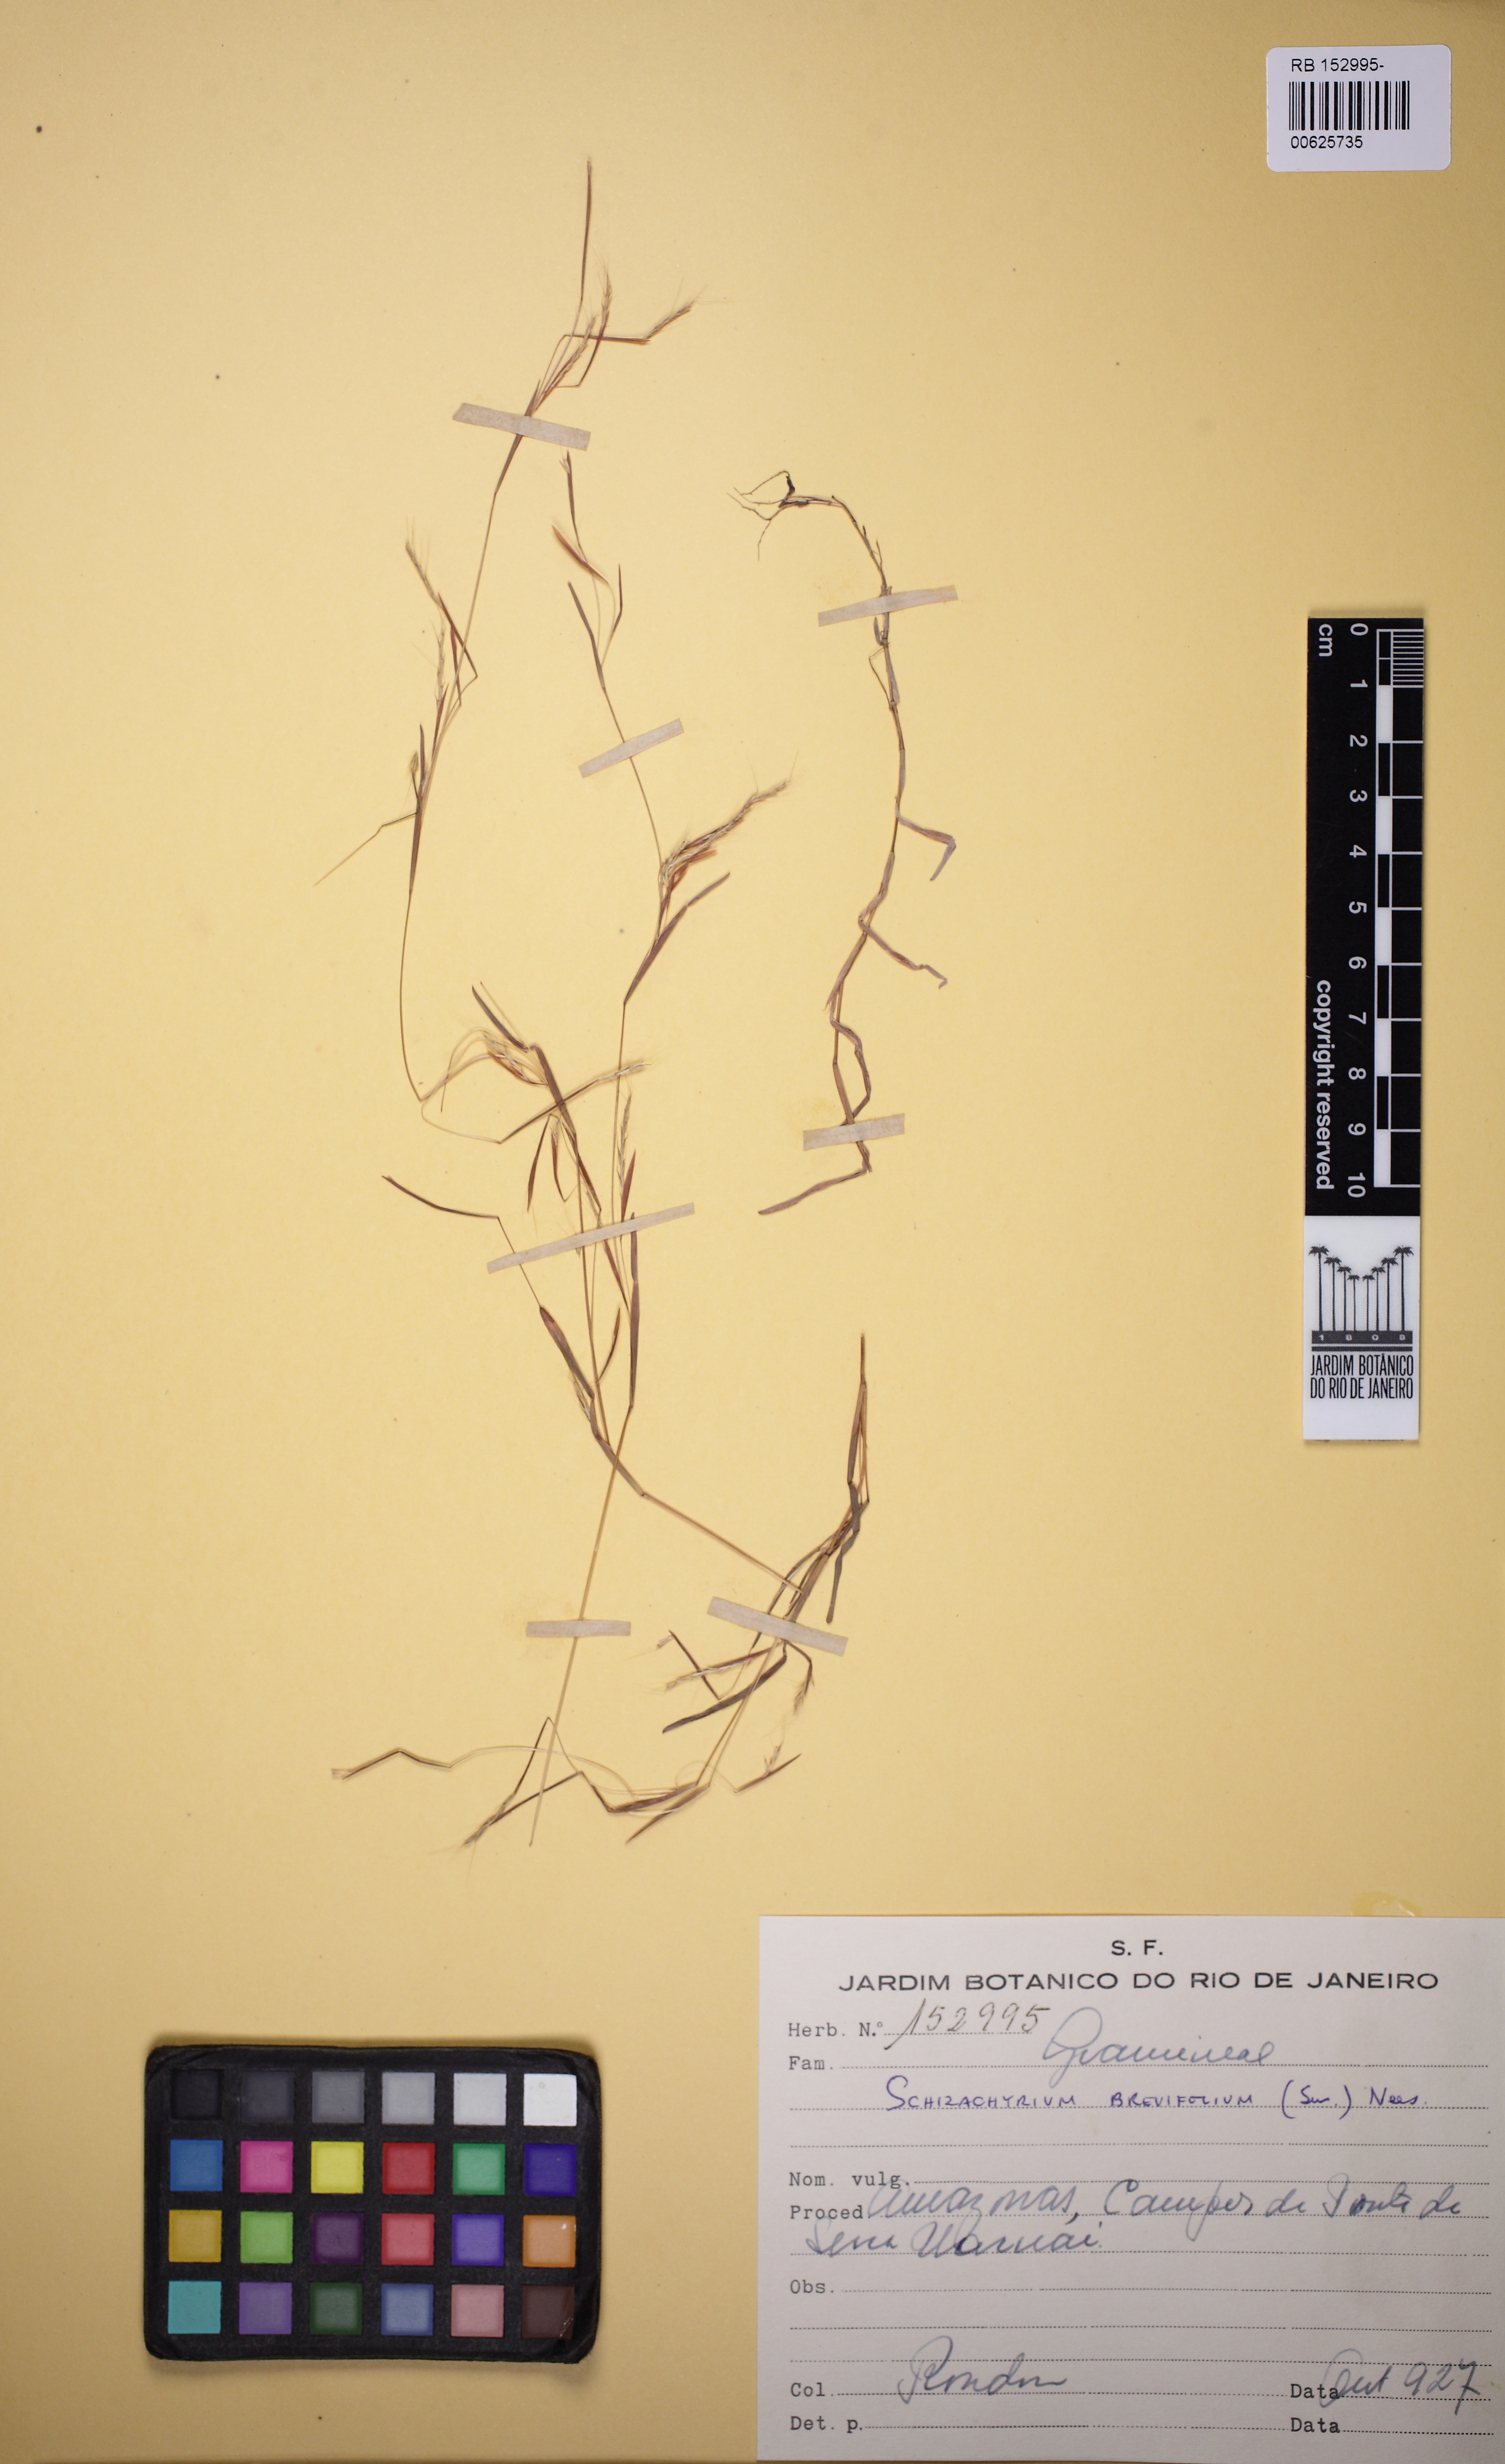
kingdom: Plantae
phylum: Tracheophyta
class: Liliopsida
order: Poales
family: Poaceae
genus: Schizachyrium
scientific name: Schizachyrium brevifolium
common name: Serillo dulce
